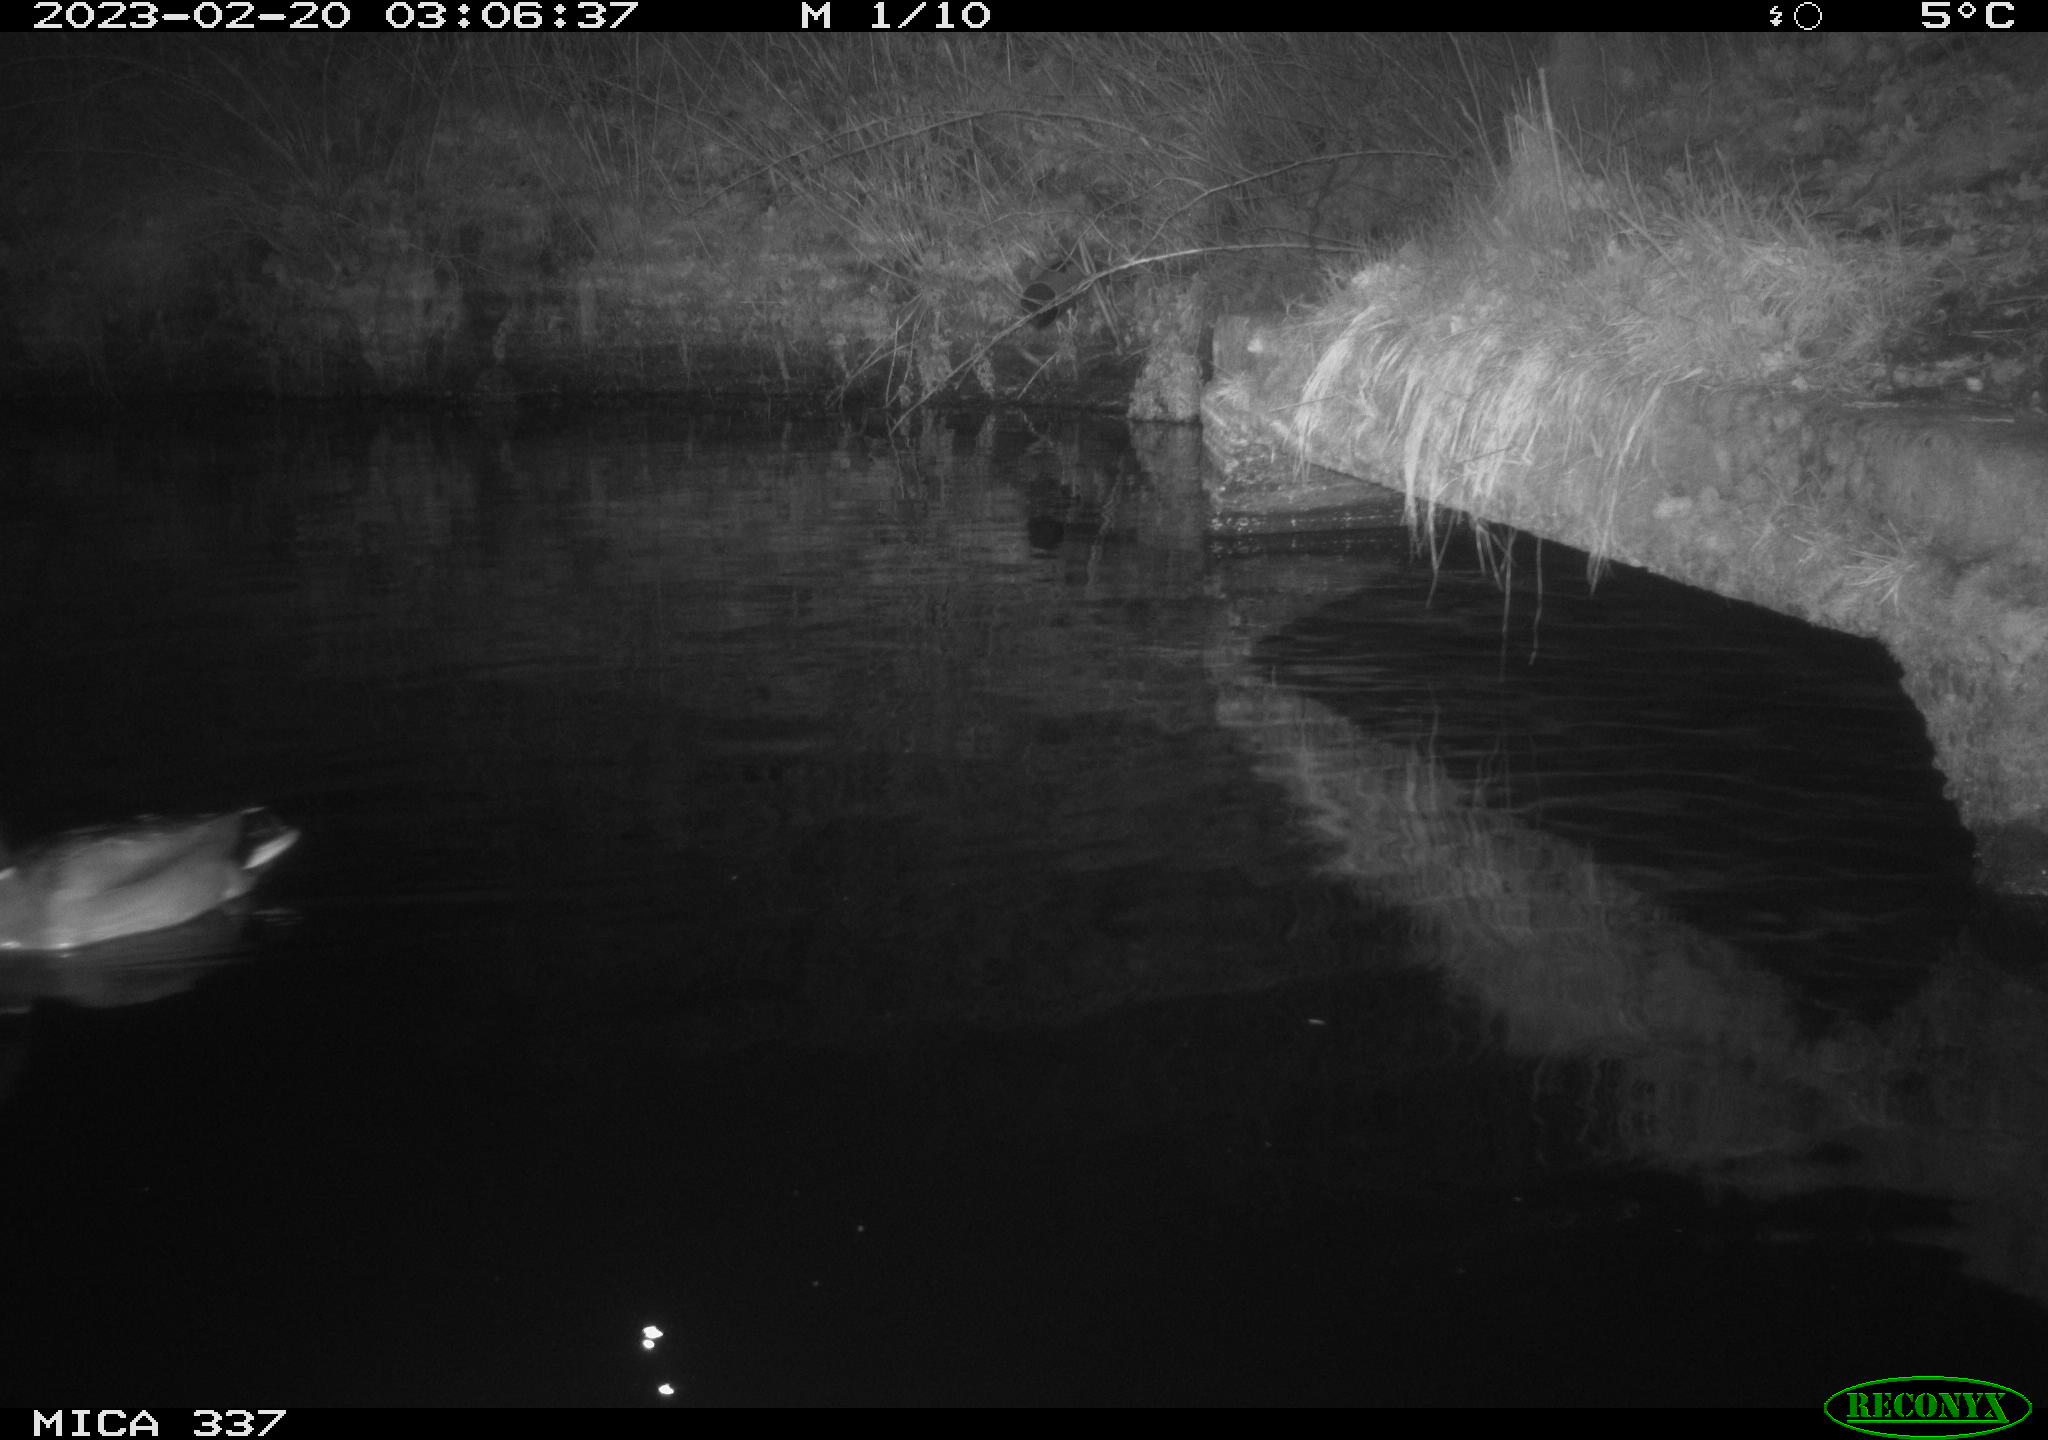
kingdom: Animalia
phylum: Chordata
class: Aves
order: Anseriformes
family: Anatidae
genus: Anas
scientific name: Anas
